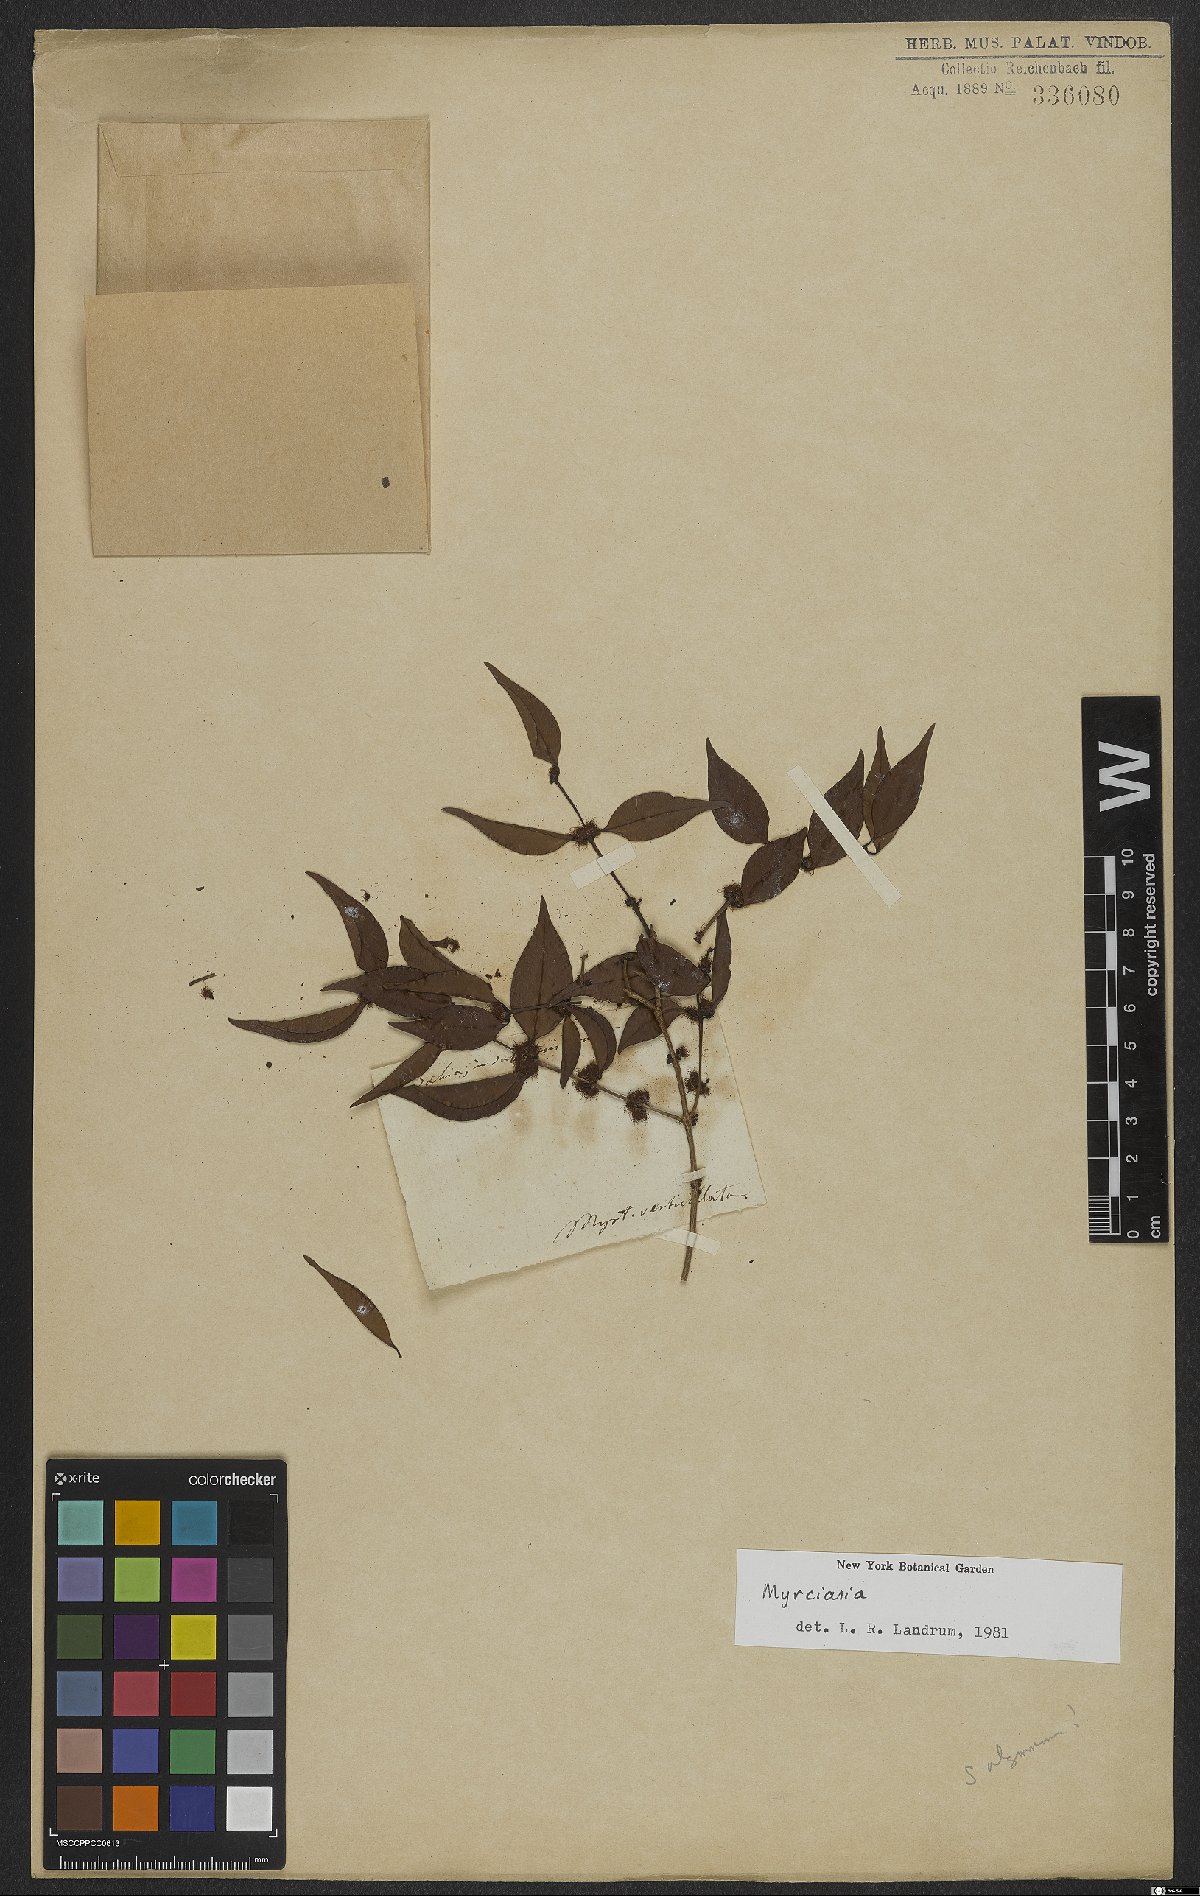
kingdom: Plantae
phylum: Tracheophyta
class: Magnoliopsida
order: Myrtales
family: Myrtaceae
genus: Myrciaria
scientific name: Myrciaria
